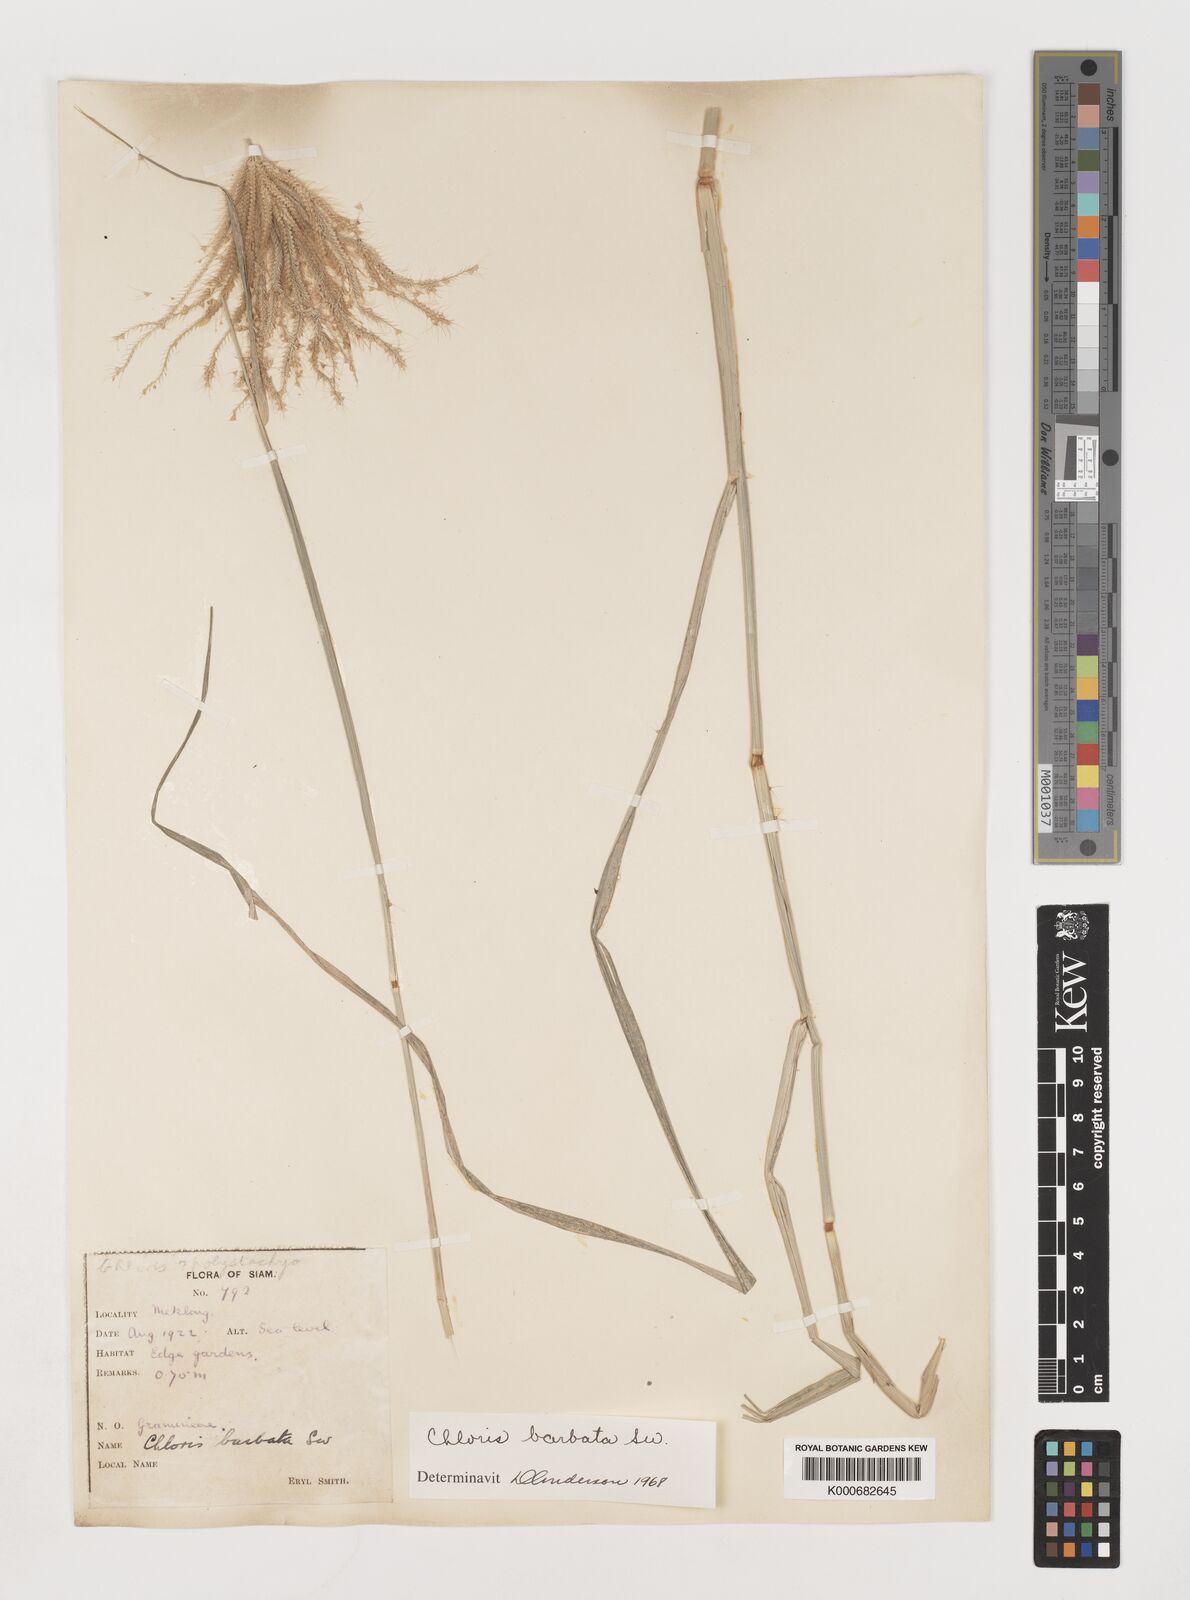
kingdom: Plantae
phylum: Tracheophyta
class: Liliopsida
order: Poales
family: Poaceae
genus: Chloris
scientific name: Chloris barbata
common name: Swollen fingergrass
